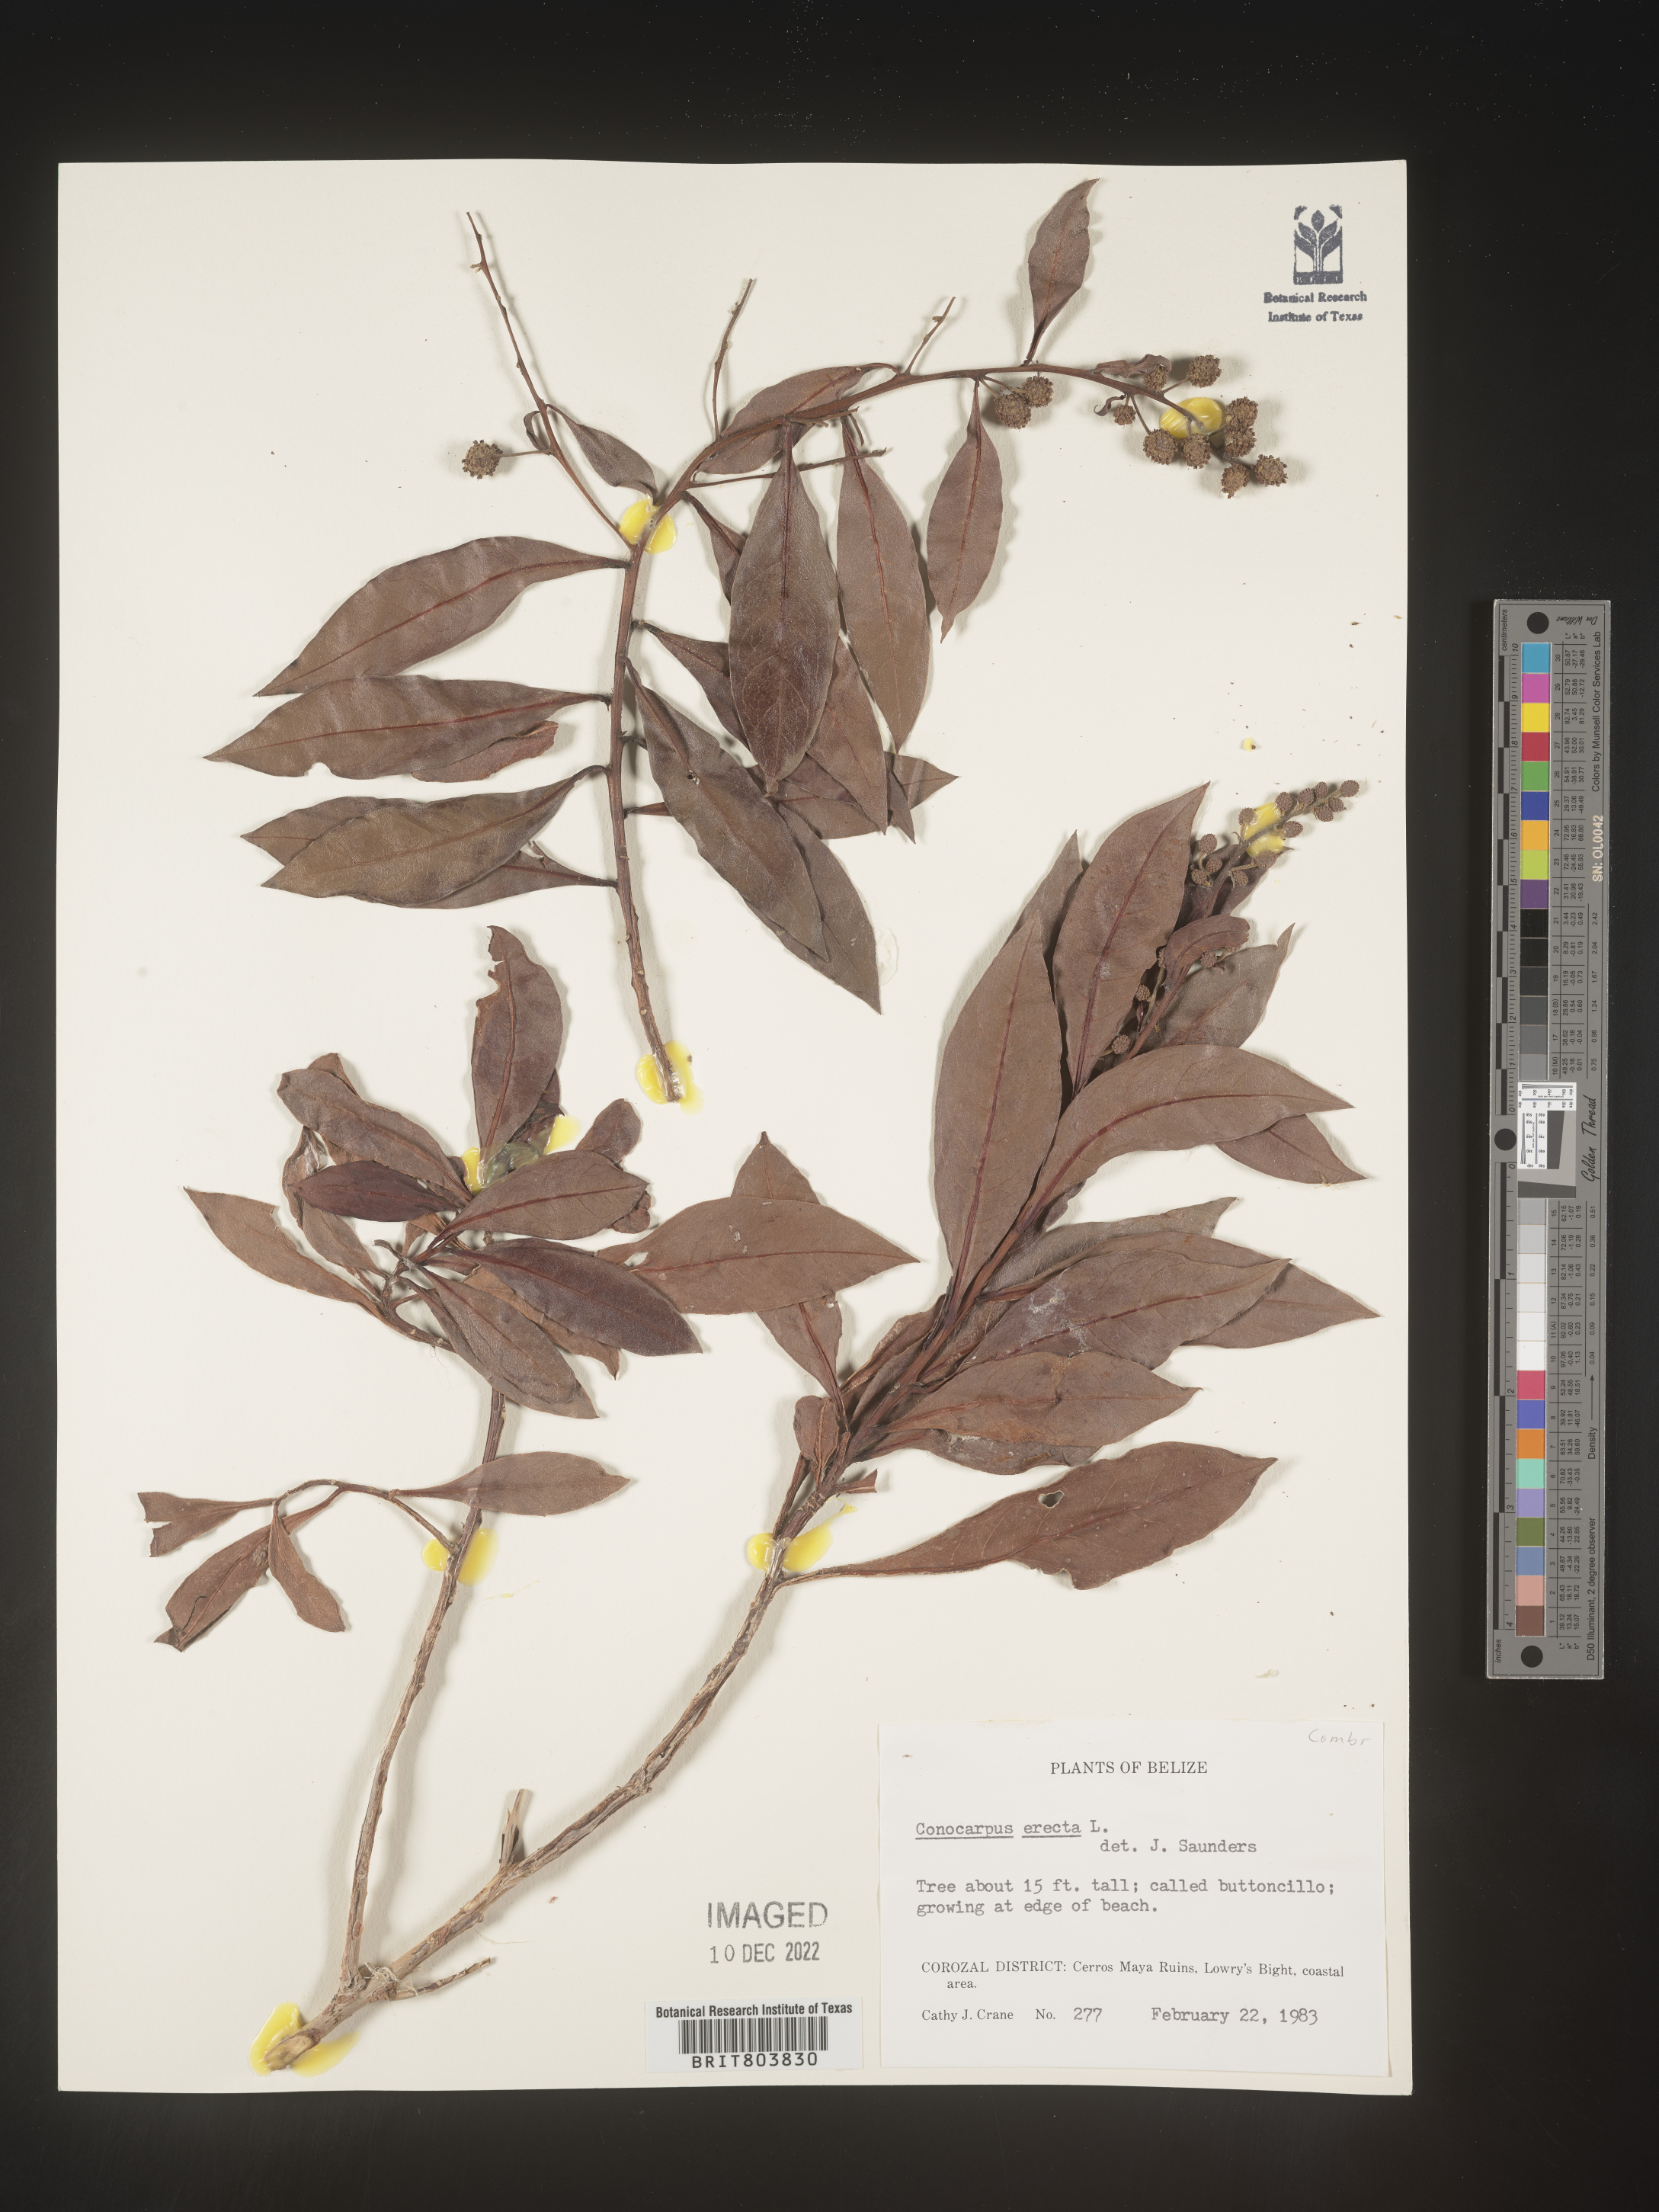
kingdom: Plantae
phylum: Tracheophyta
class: Magnoliopsida
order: Myrtales
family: Combretaceae
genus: Conocarpus
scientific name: Conocarpus
